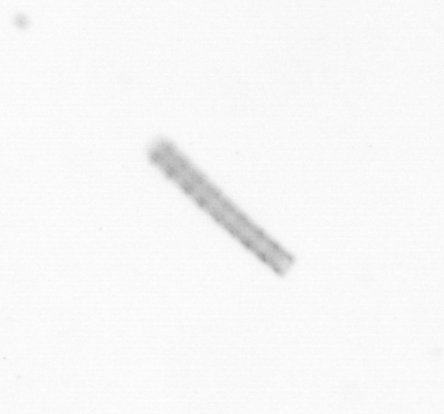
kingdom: Chromista
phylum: Ochrophyta
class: Bacillariophyceae
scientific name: Bacillariophyceae
